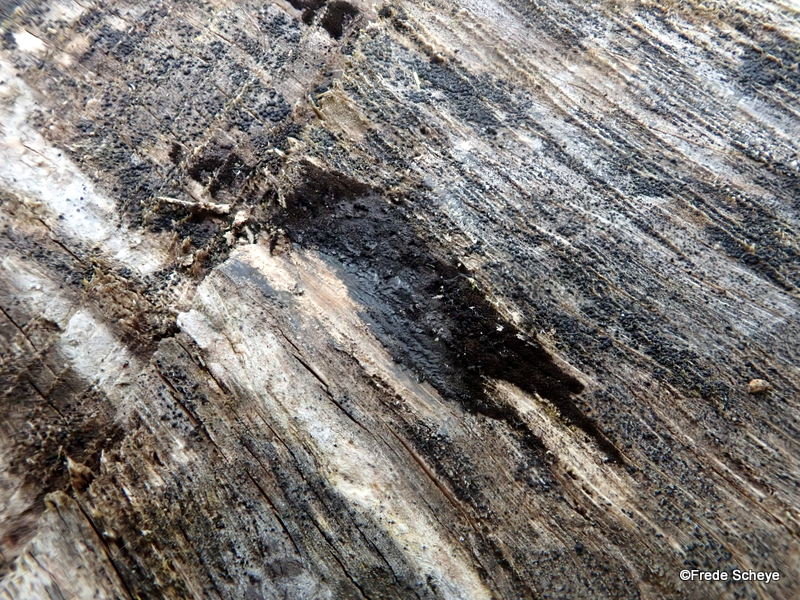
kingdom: Fungi
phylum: Ascomycota
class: Leotiomycetes
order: Helotiales
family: Helotiaceae
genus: Bispora
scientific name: Bispora pallescens
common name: måtte-snitskive
